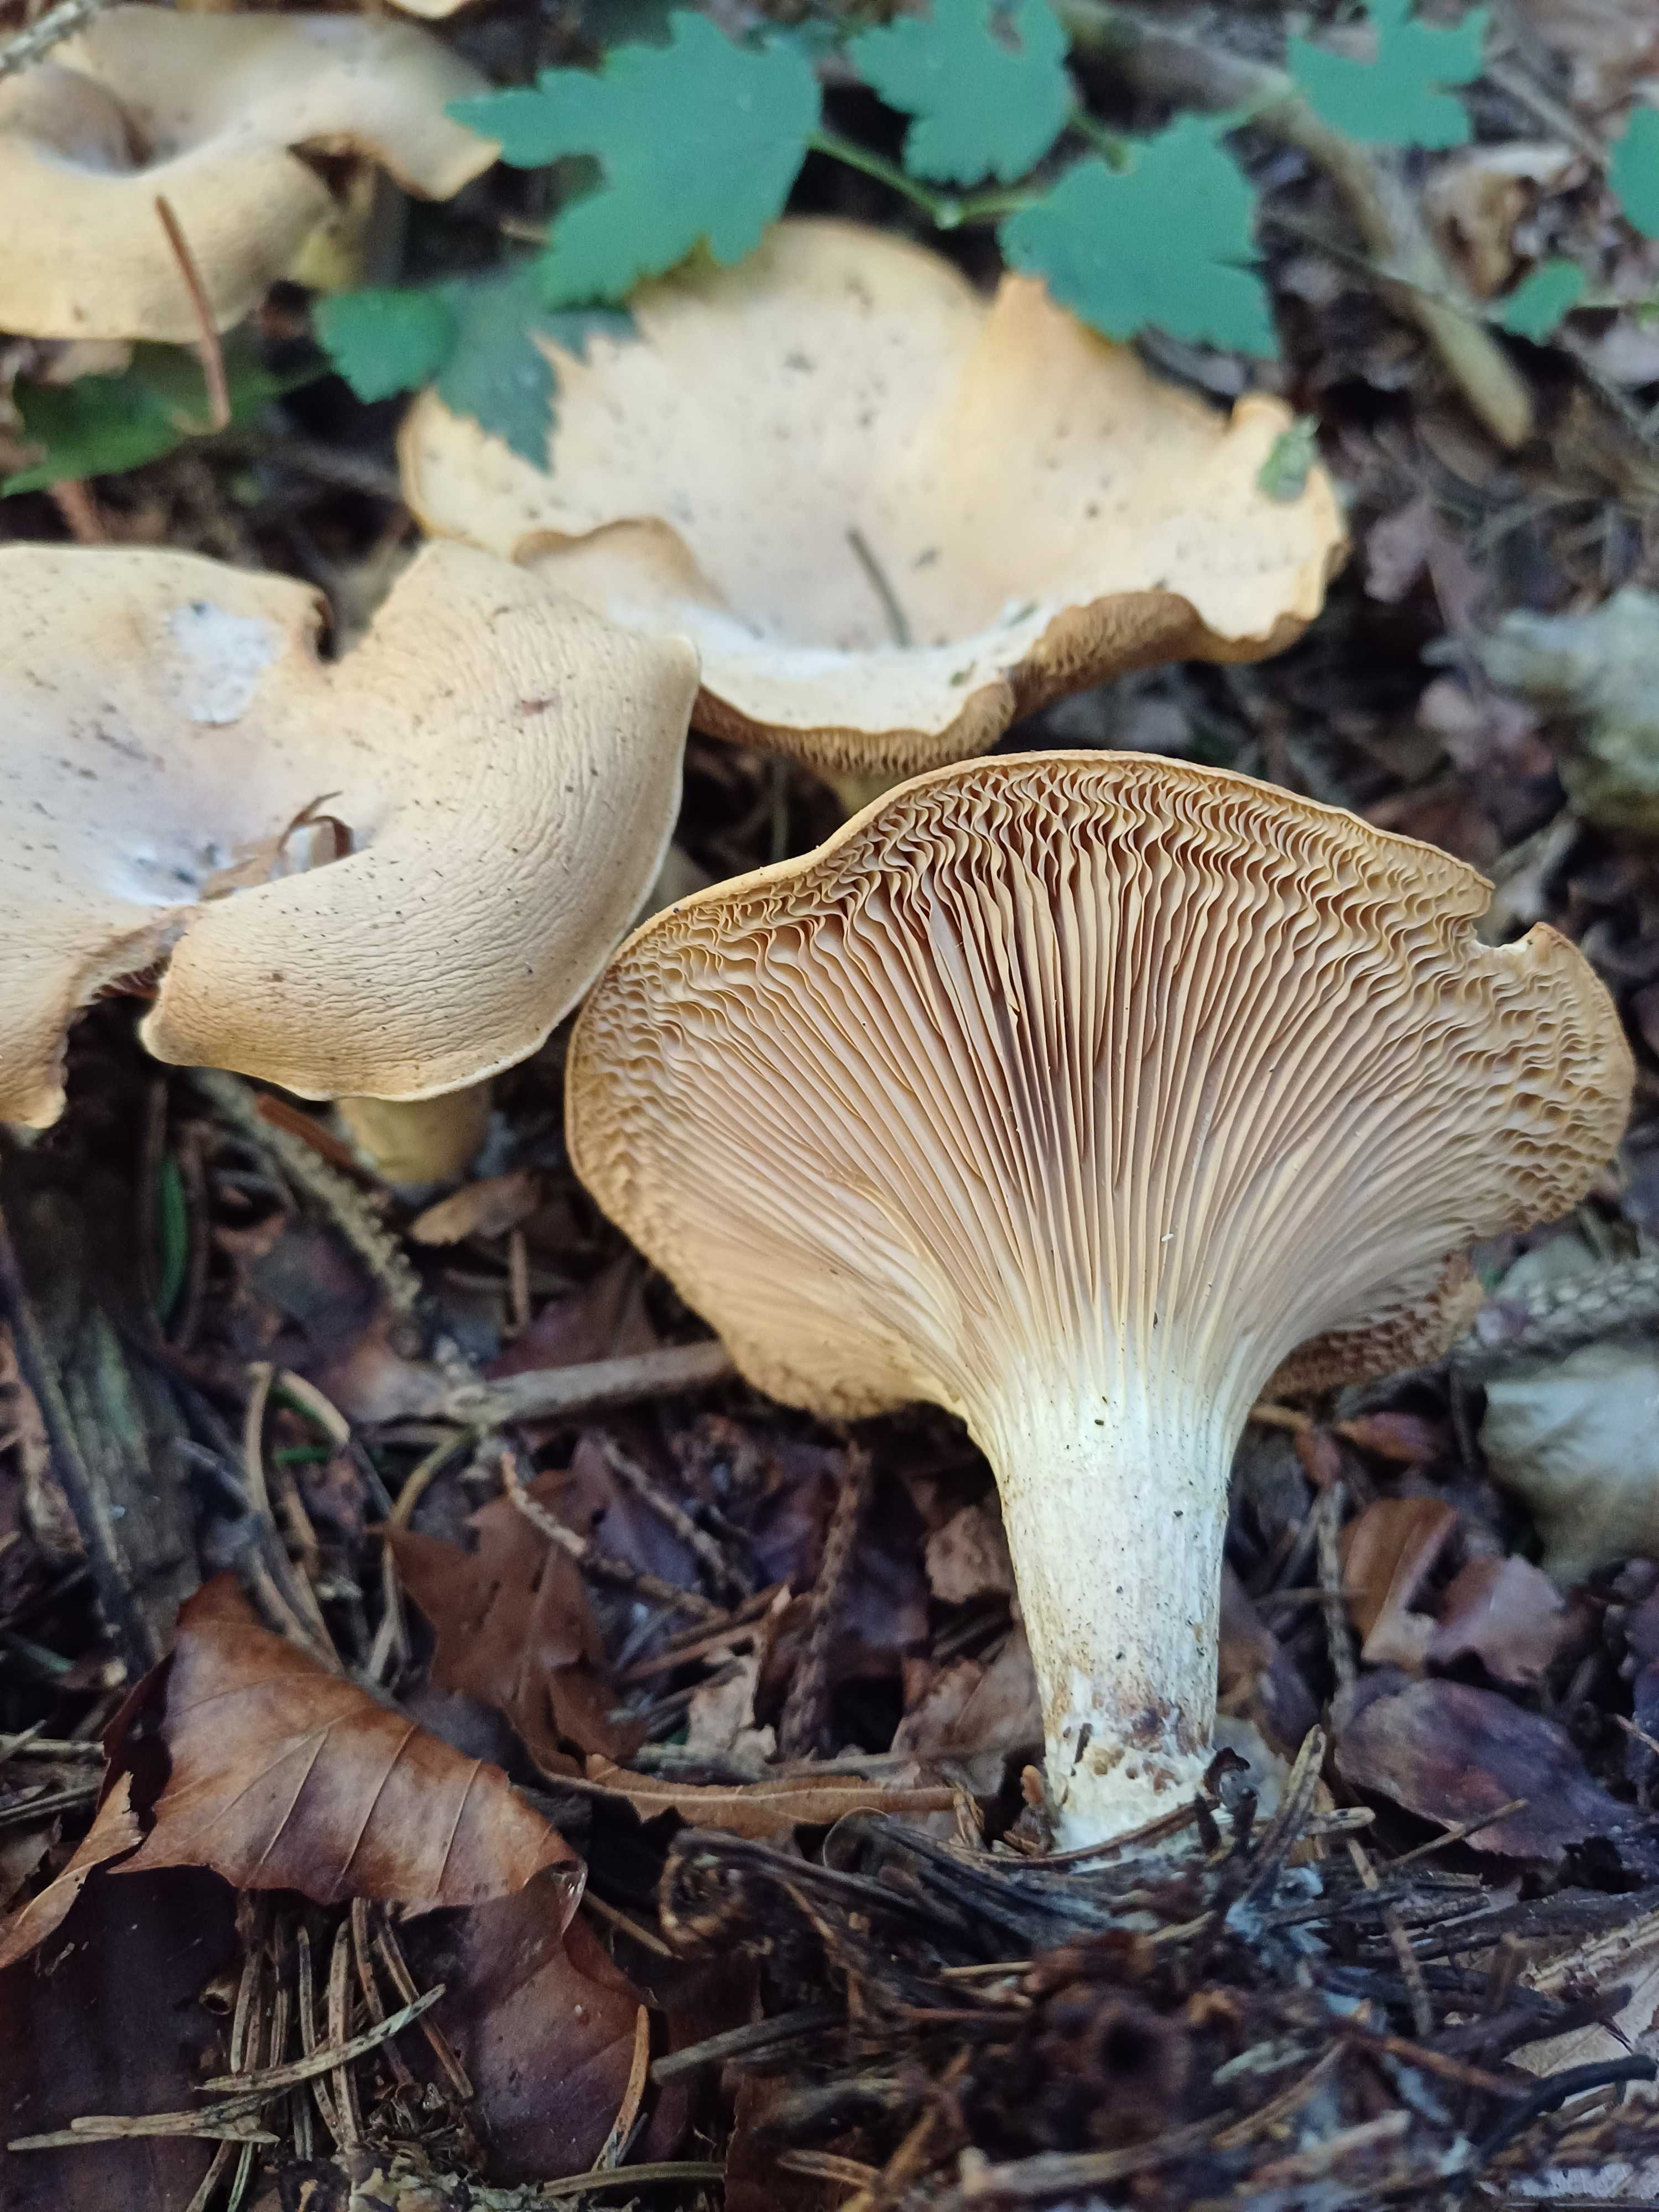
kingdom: Fungi
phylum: Basidiomycota
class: Agaricomycetes
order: Agaricales
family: Tricholomataceae
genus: Paralepista
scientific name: Paralepista
